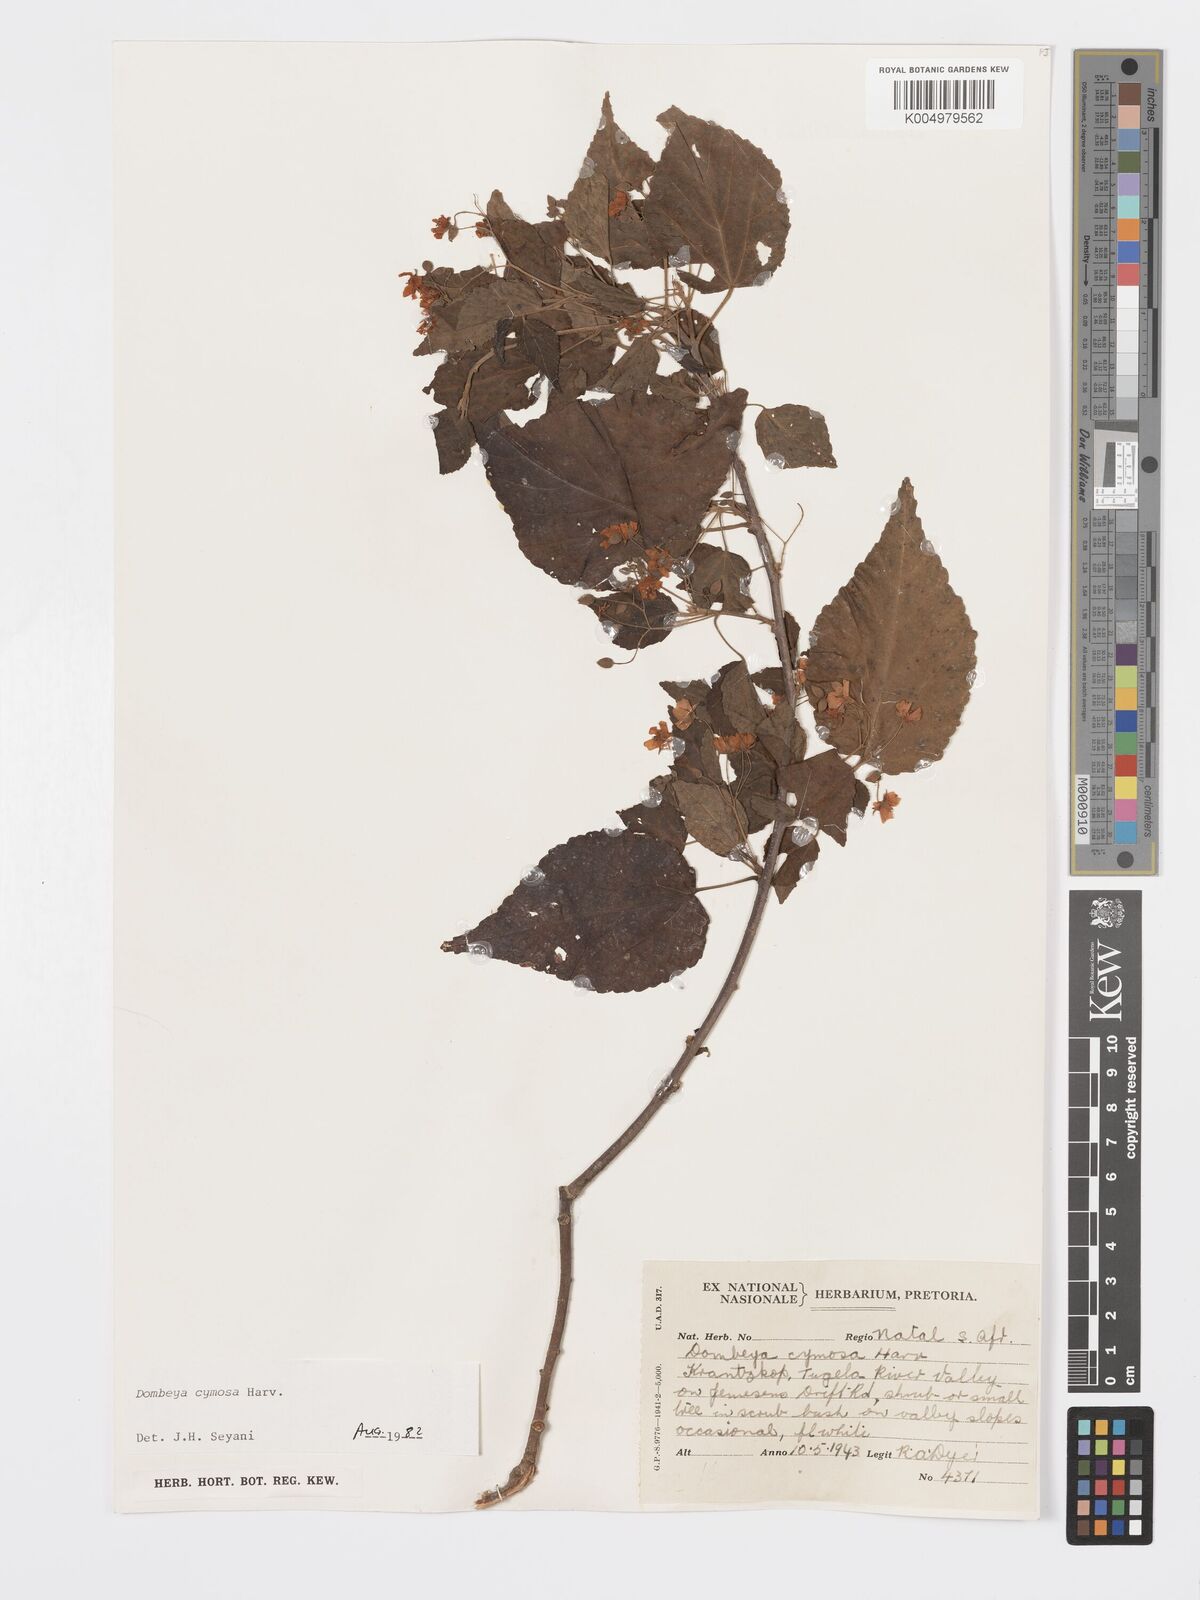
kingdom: Plantae
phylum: Tracheophyta
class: Magnoliopsida
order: Malvales
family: Malvaceae
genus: Dombeya
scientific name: Dombeya cymosa
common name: Hairless dombeya
